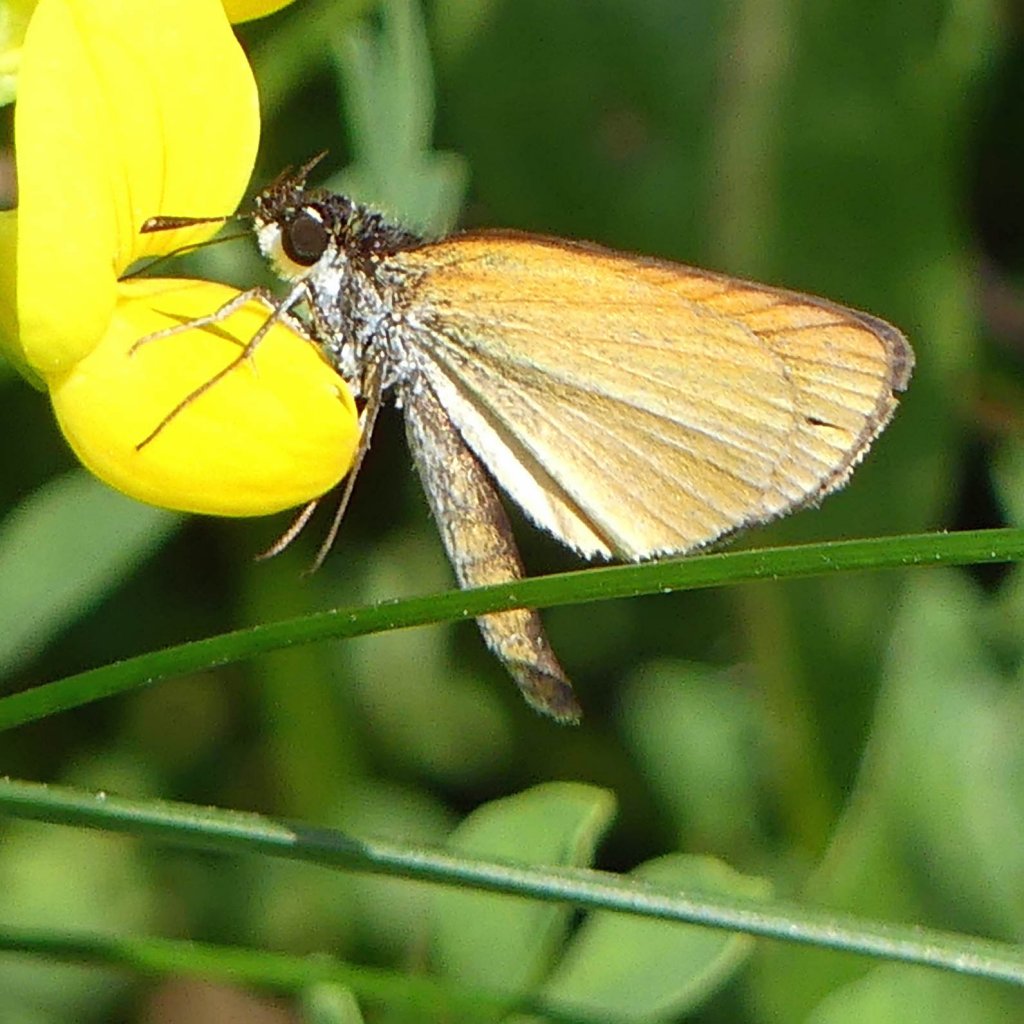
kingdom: Animalia
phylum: Arthropoda
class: Insecta
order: Lepidoptera
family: Hesperiidae
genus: Ancyloxypha
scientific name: Ancyloxypha numitor
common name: Least Skipper
